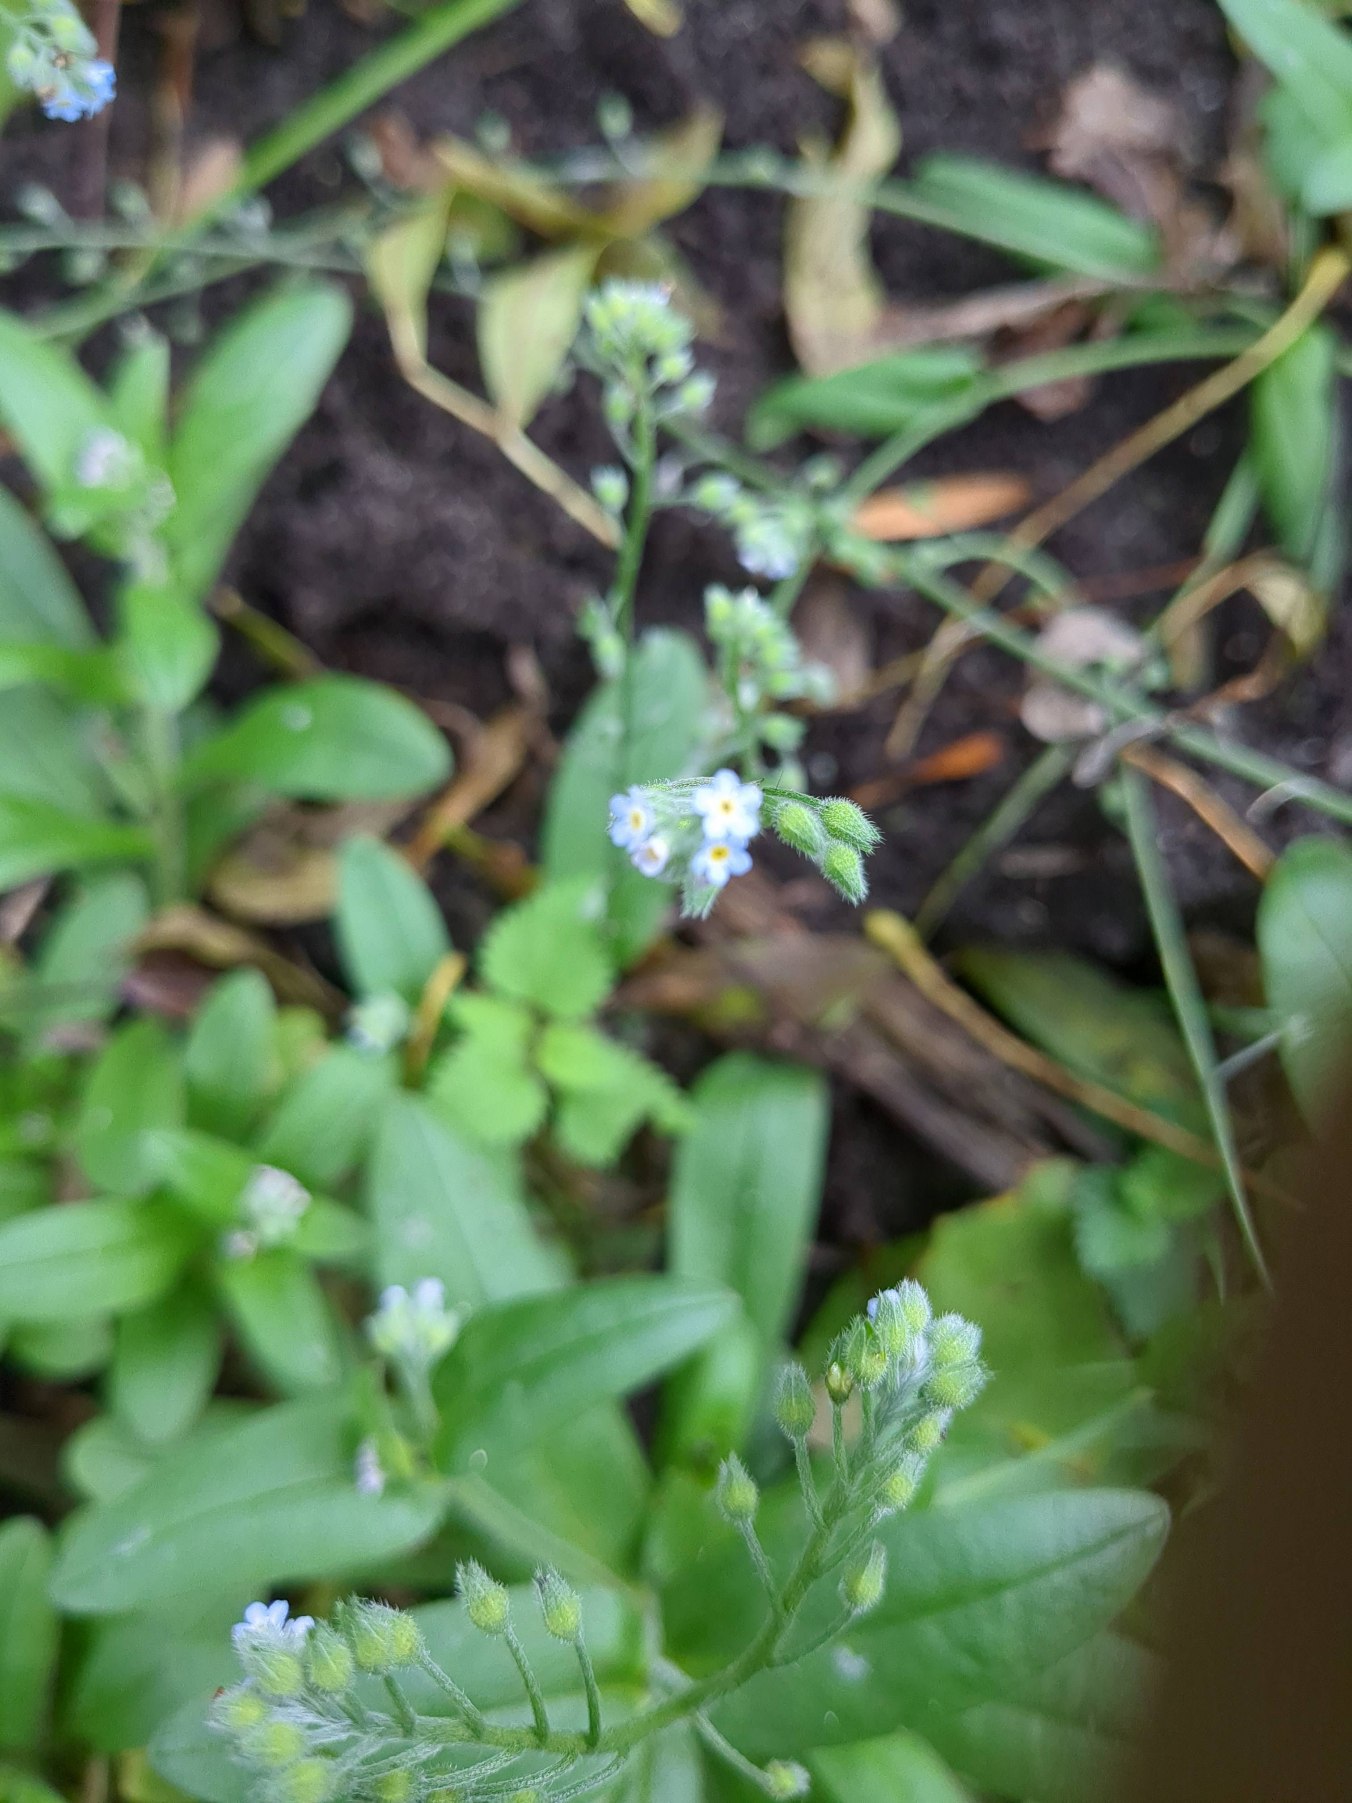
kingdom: Plantae
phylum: Tracheophyta
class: Magnoliopsida
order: Boraginales
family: Boraginaceae
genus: Myosotis
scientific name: Myosotis arvensis
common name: Mark-forglemmigej
